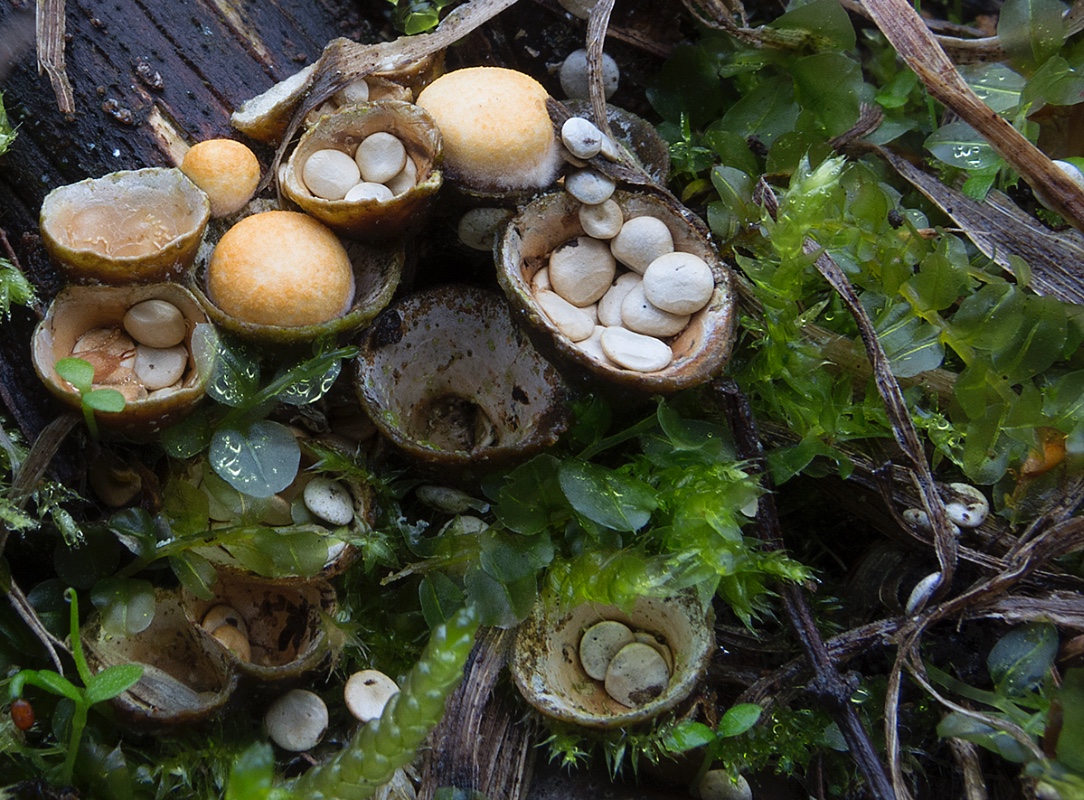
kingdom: Fungi
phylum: Basidiomycota
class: Agaricomycetes
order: Agaricales
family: Nidulariaceae
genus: Crucibulum
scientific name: Crucibulum crucibuliforme
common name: krukkesvamp
